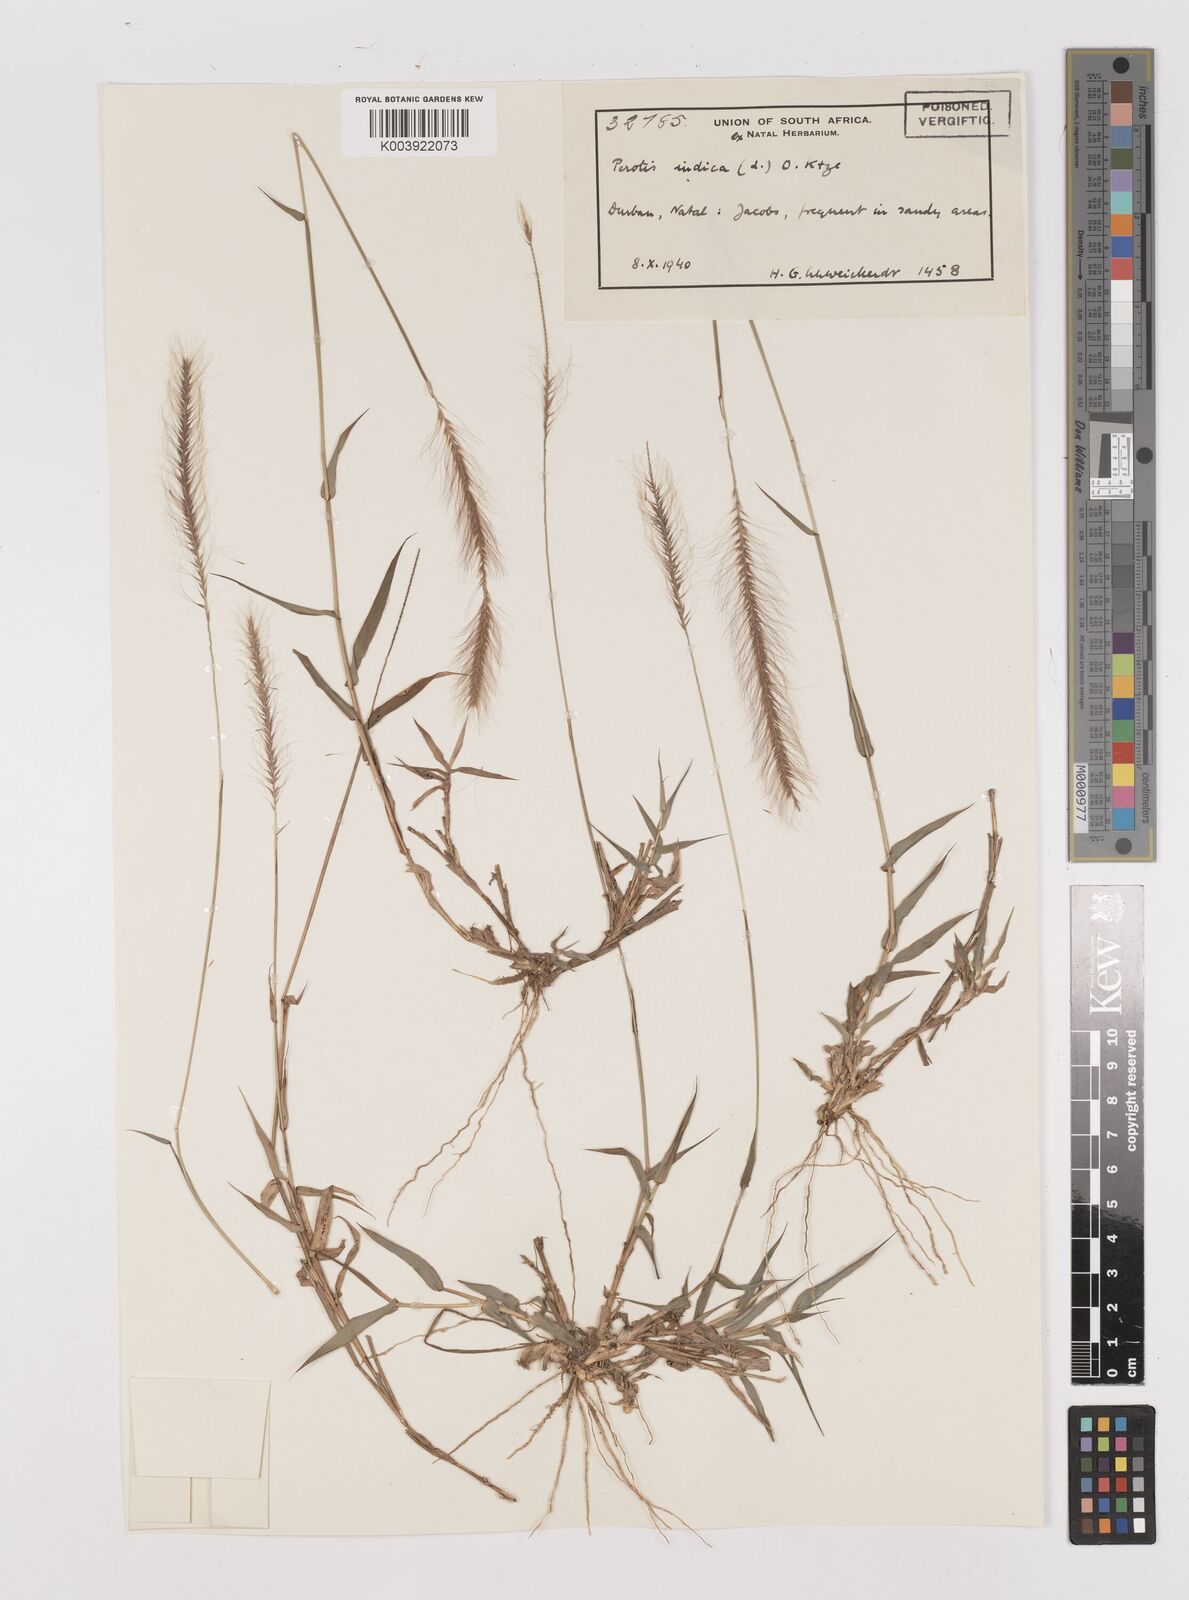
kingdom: Plantae
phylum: Tracheophyta
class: Liliopsida
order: Poales
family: Poaceae
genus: Perotis
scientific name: Perotis patens
